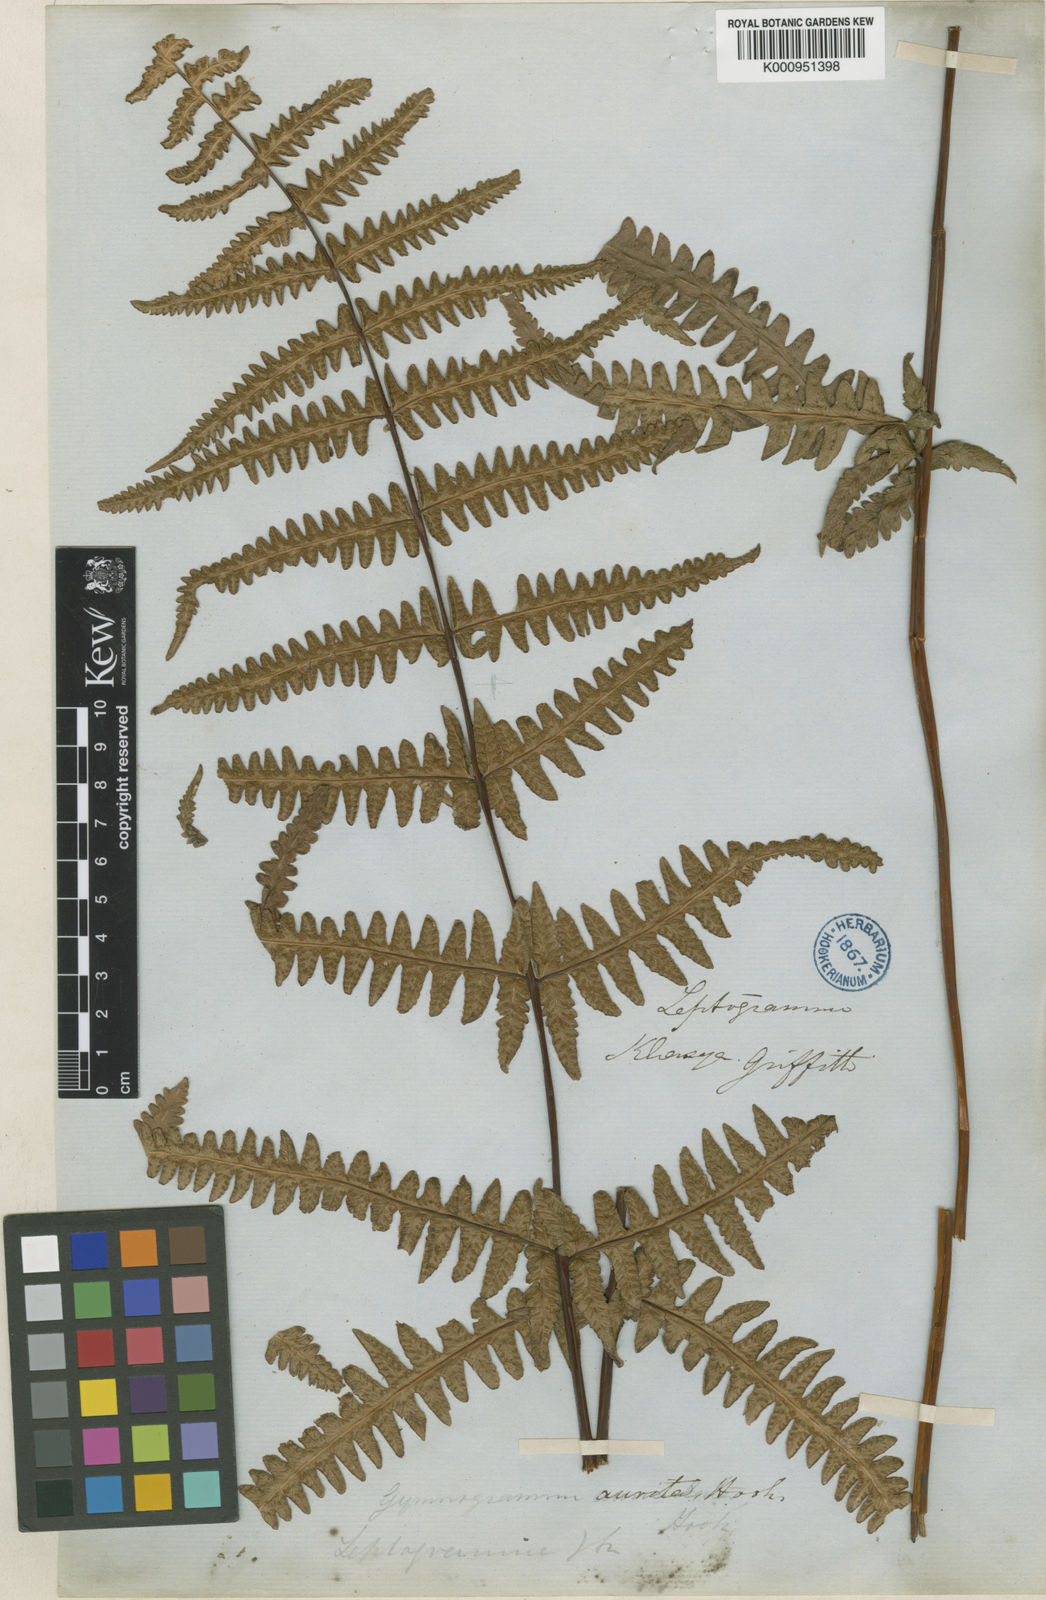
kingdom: Plantae
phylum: Tracheophyta
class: Polypodiopsida
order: Polypodiales
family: Thelypteridaceae
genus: Pseudophegopteris
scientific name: Pseudophegopteris aurita
